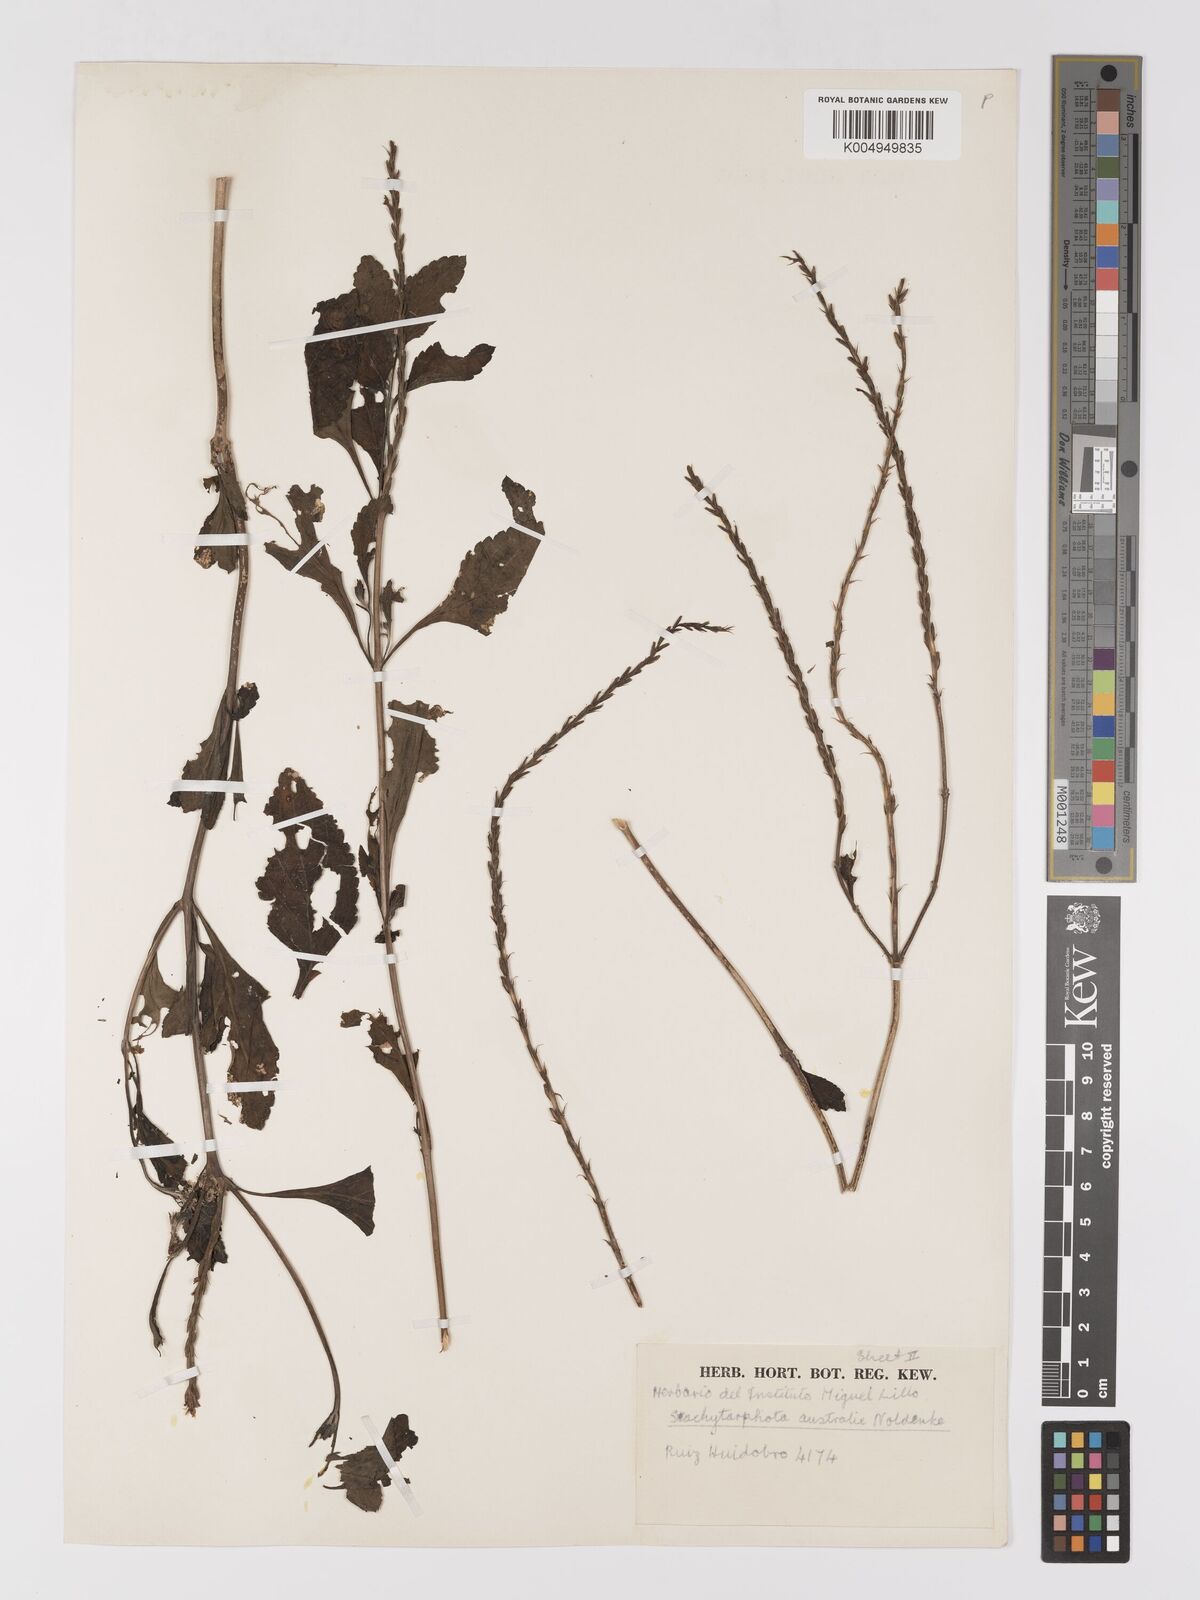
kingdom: Plantae
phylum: Tracheophyta
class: Magnoliopsida
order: Lamiales
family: Verbenaceae
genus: Stachytarpheta
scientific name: Stachytarpheta cayennensis
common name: Cayenne porterweed
